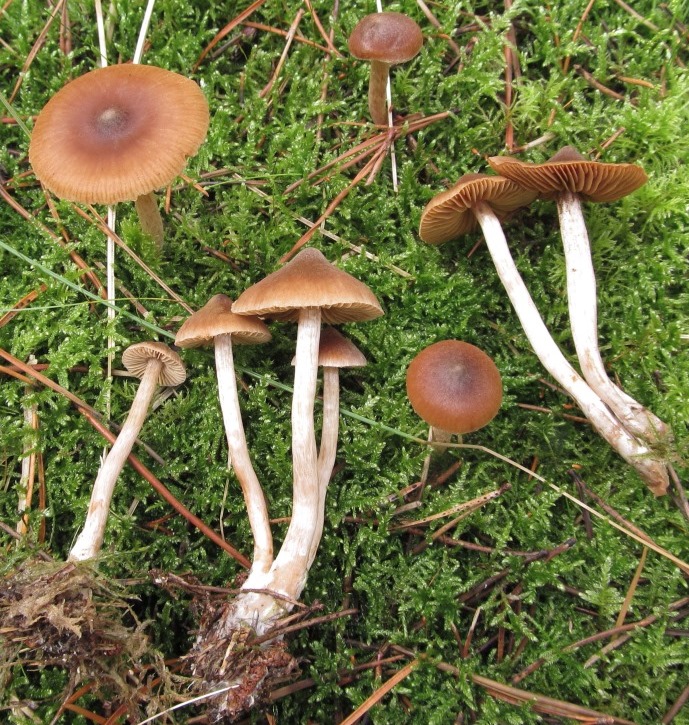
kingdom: Fungi
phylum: Basidiomycota
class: Agaricomycetes
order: Agaricales
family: Cortinariaceae
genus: Cortinarius
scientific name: Cortinarius
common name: ræve-slørhat
